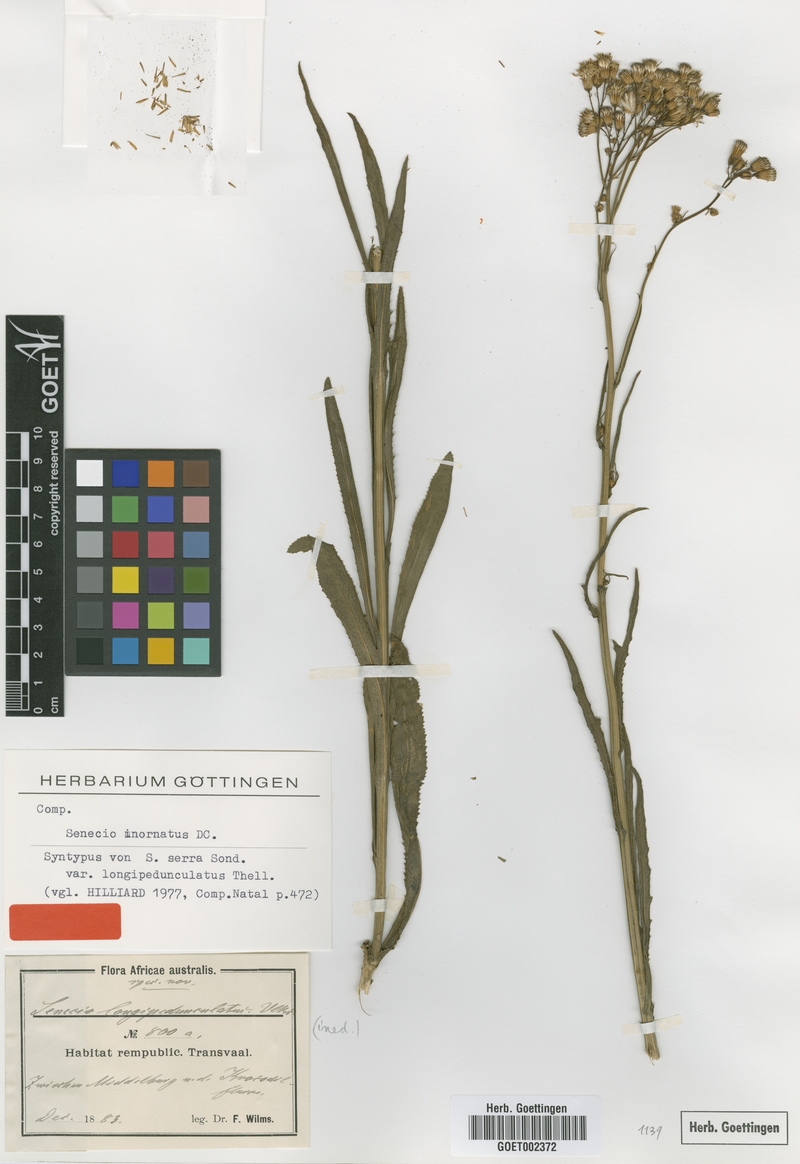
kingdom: Plantae
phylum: Tracheophyta
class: Magnoliopsida
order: Asterales
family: Asteraceae
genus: Senecio
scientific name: Senecio inornatus
